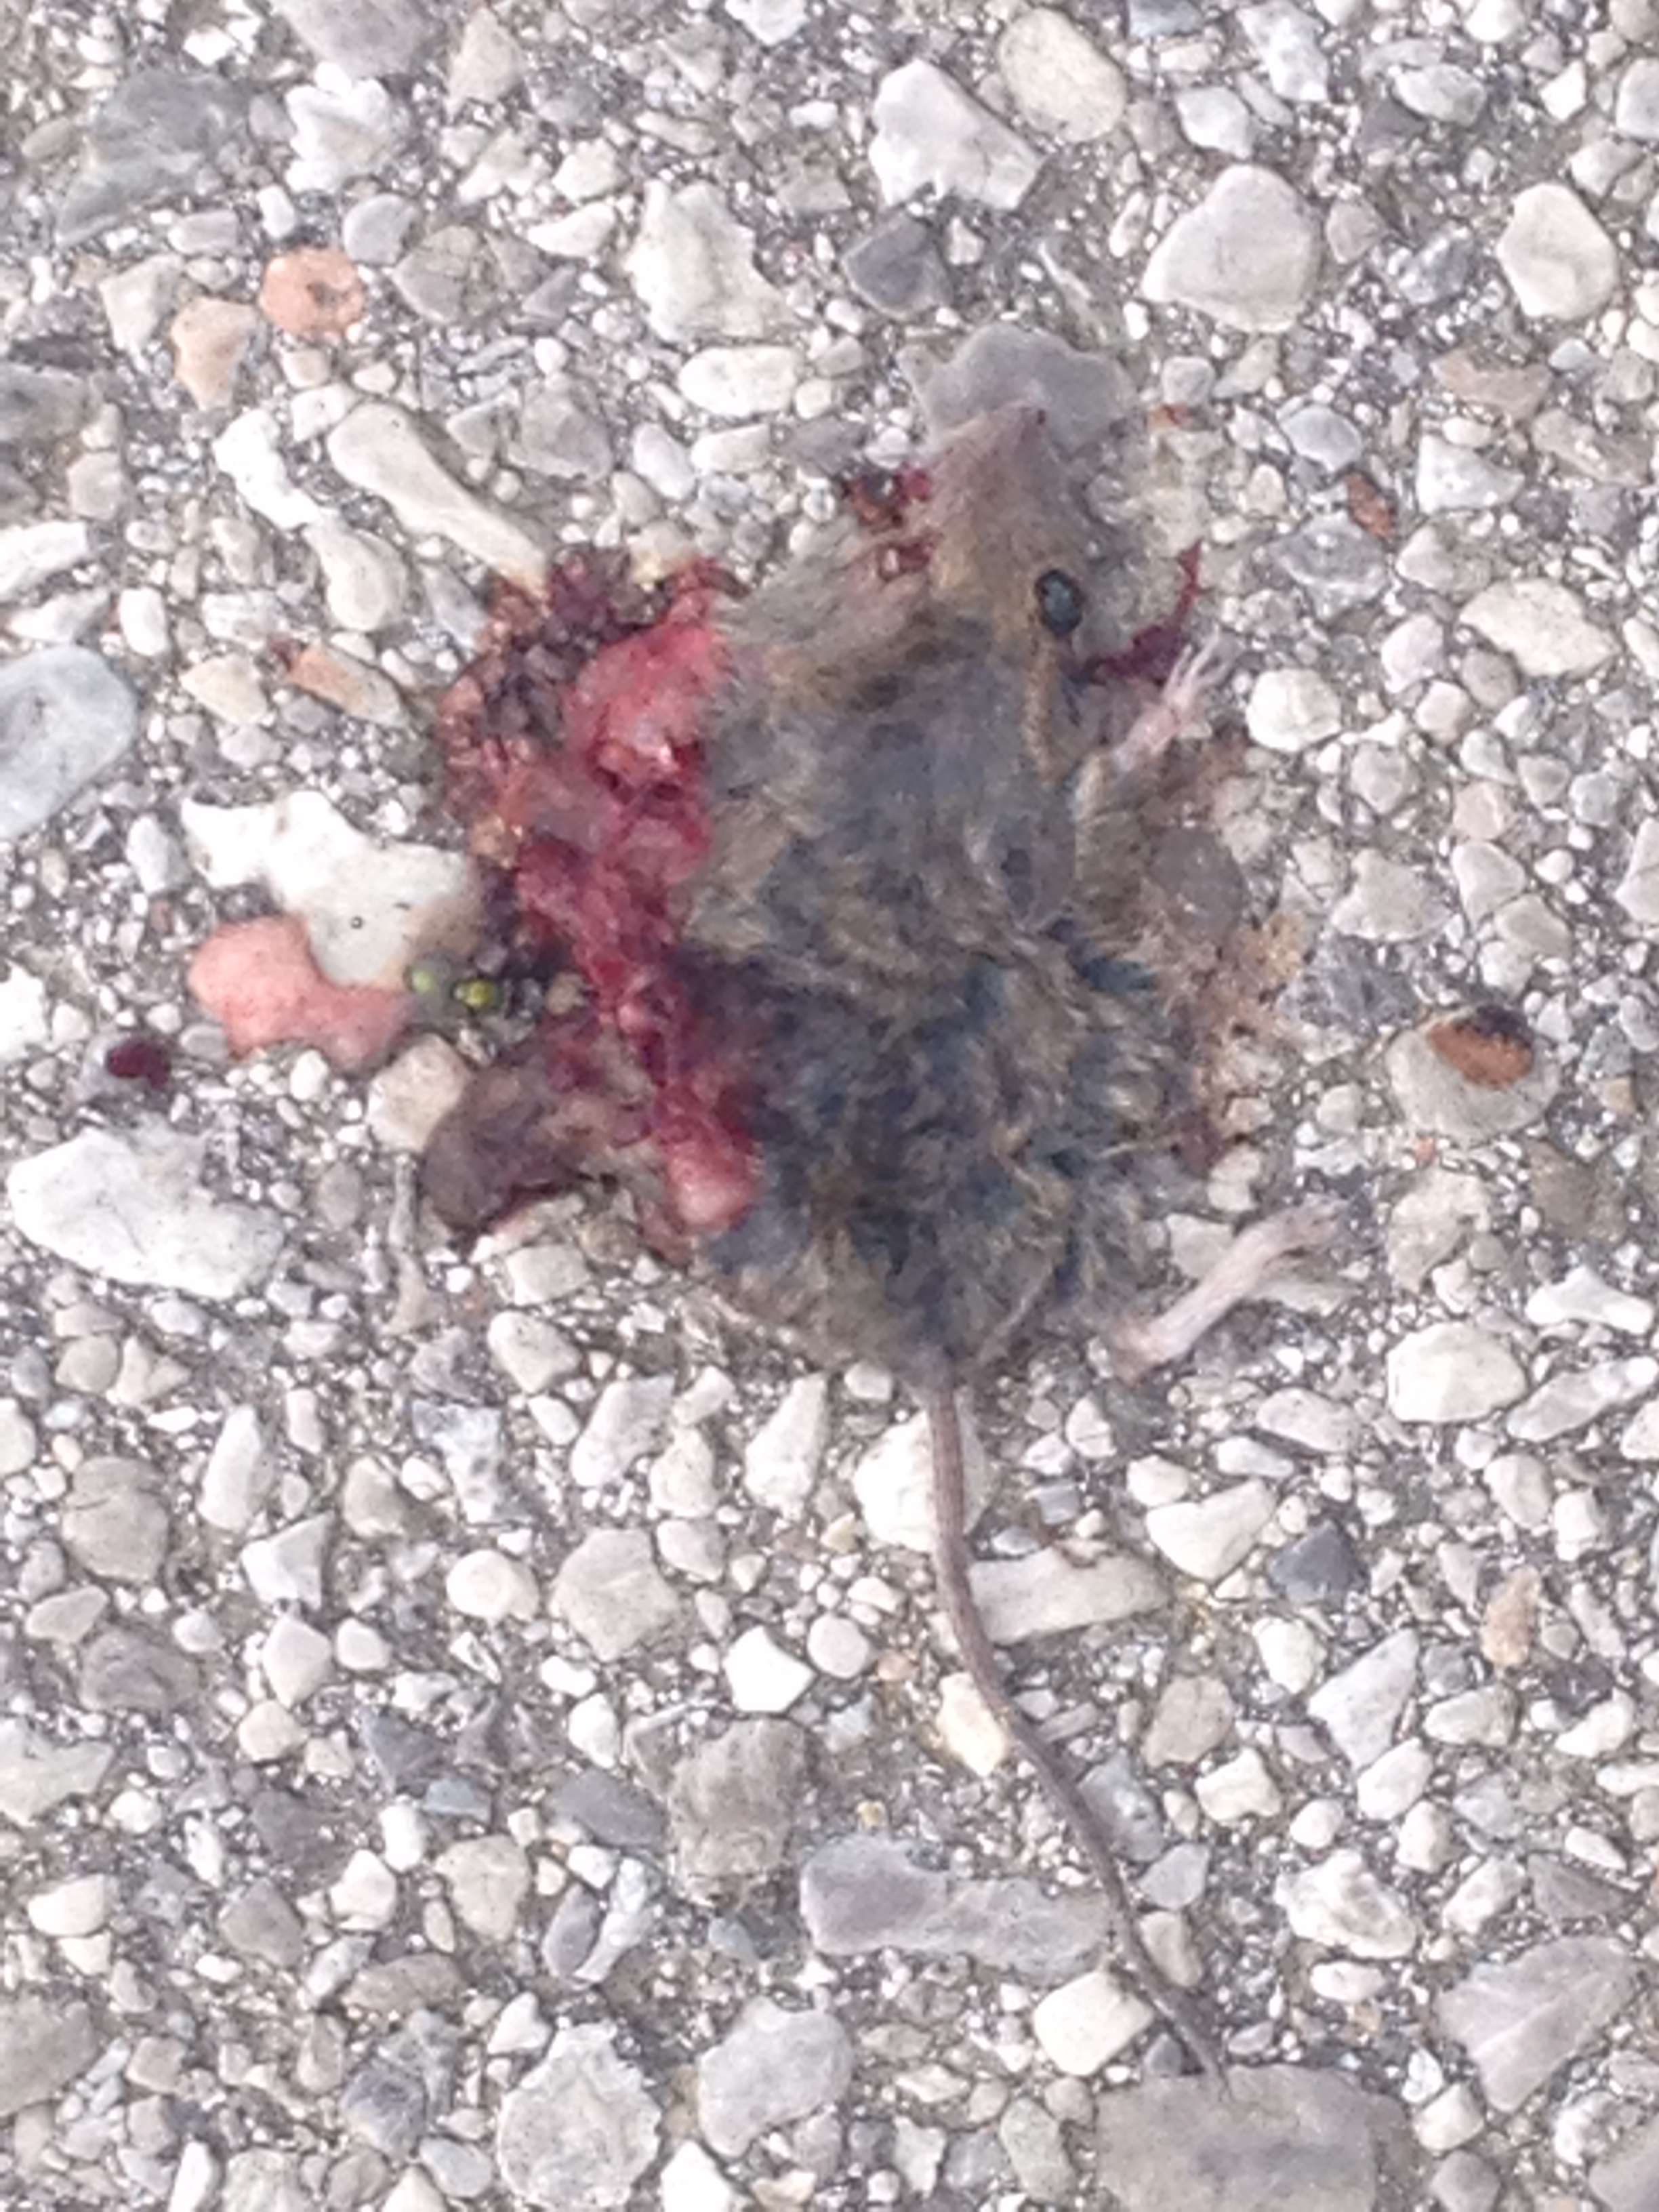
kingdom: Animalia
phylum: Chordata
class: Mammalia
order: Rodentia
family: Muridae
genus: Apodemus
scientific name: Apodemus
